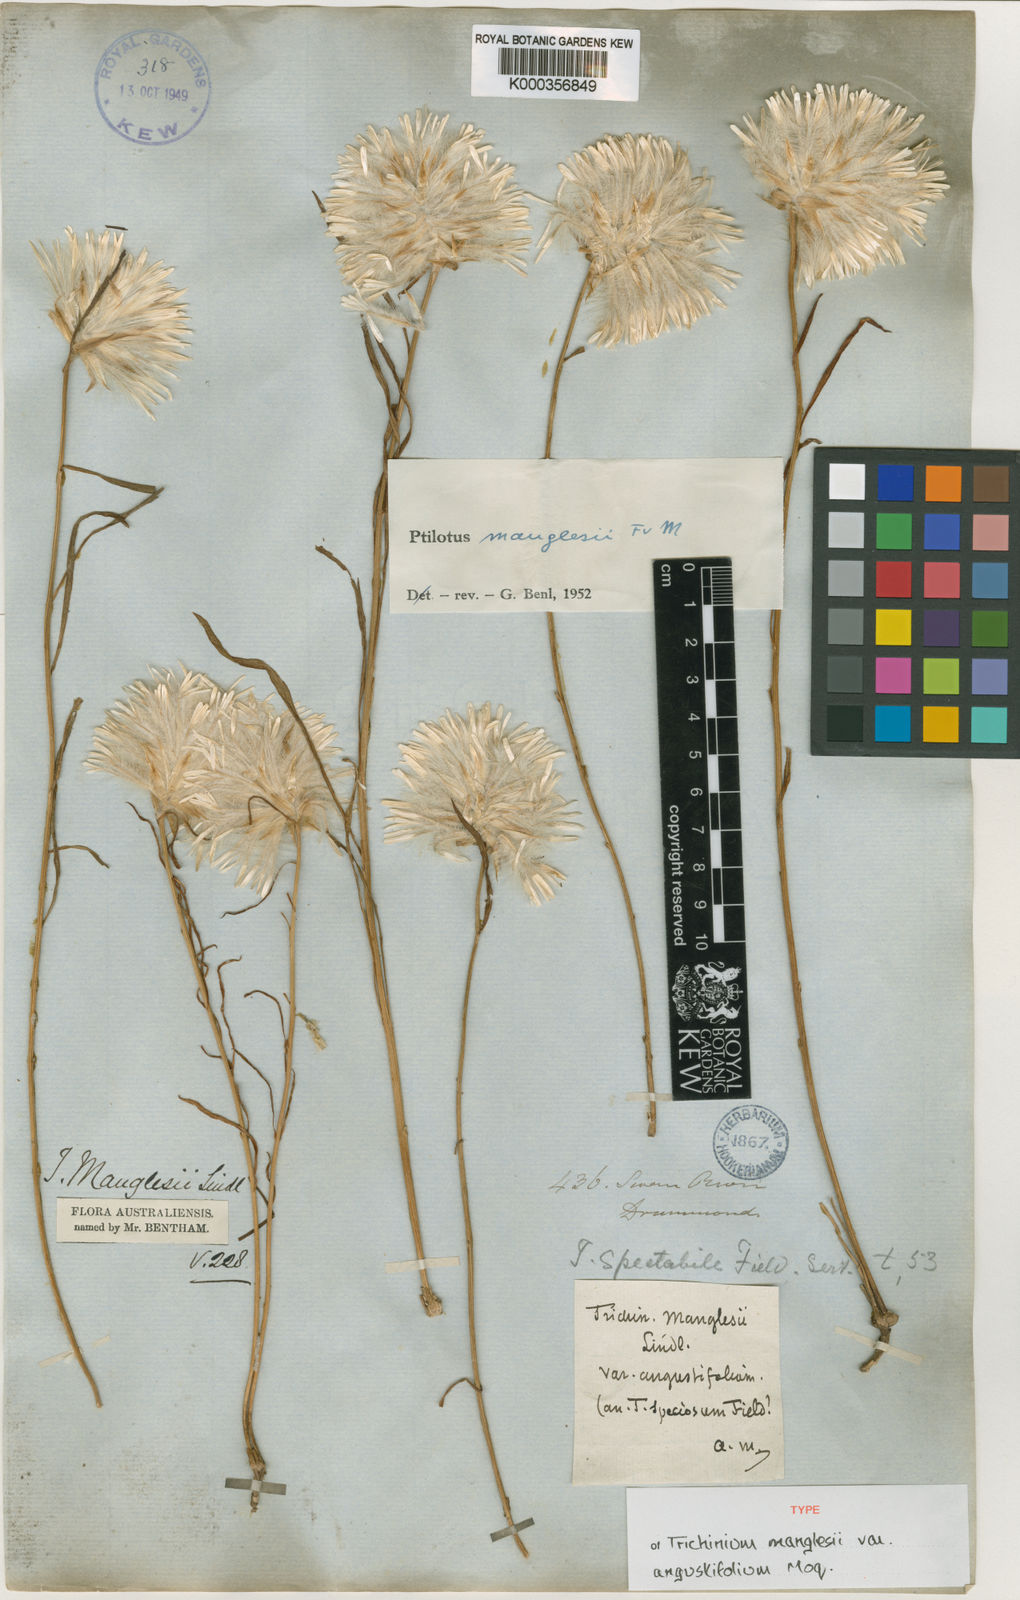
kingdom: Plantae
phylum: Tracheophyta
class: Magnoliopsida
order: Caryophyllales
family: Amaranthaceae
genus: Ptilotus
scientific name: Ptilotus manglesii
